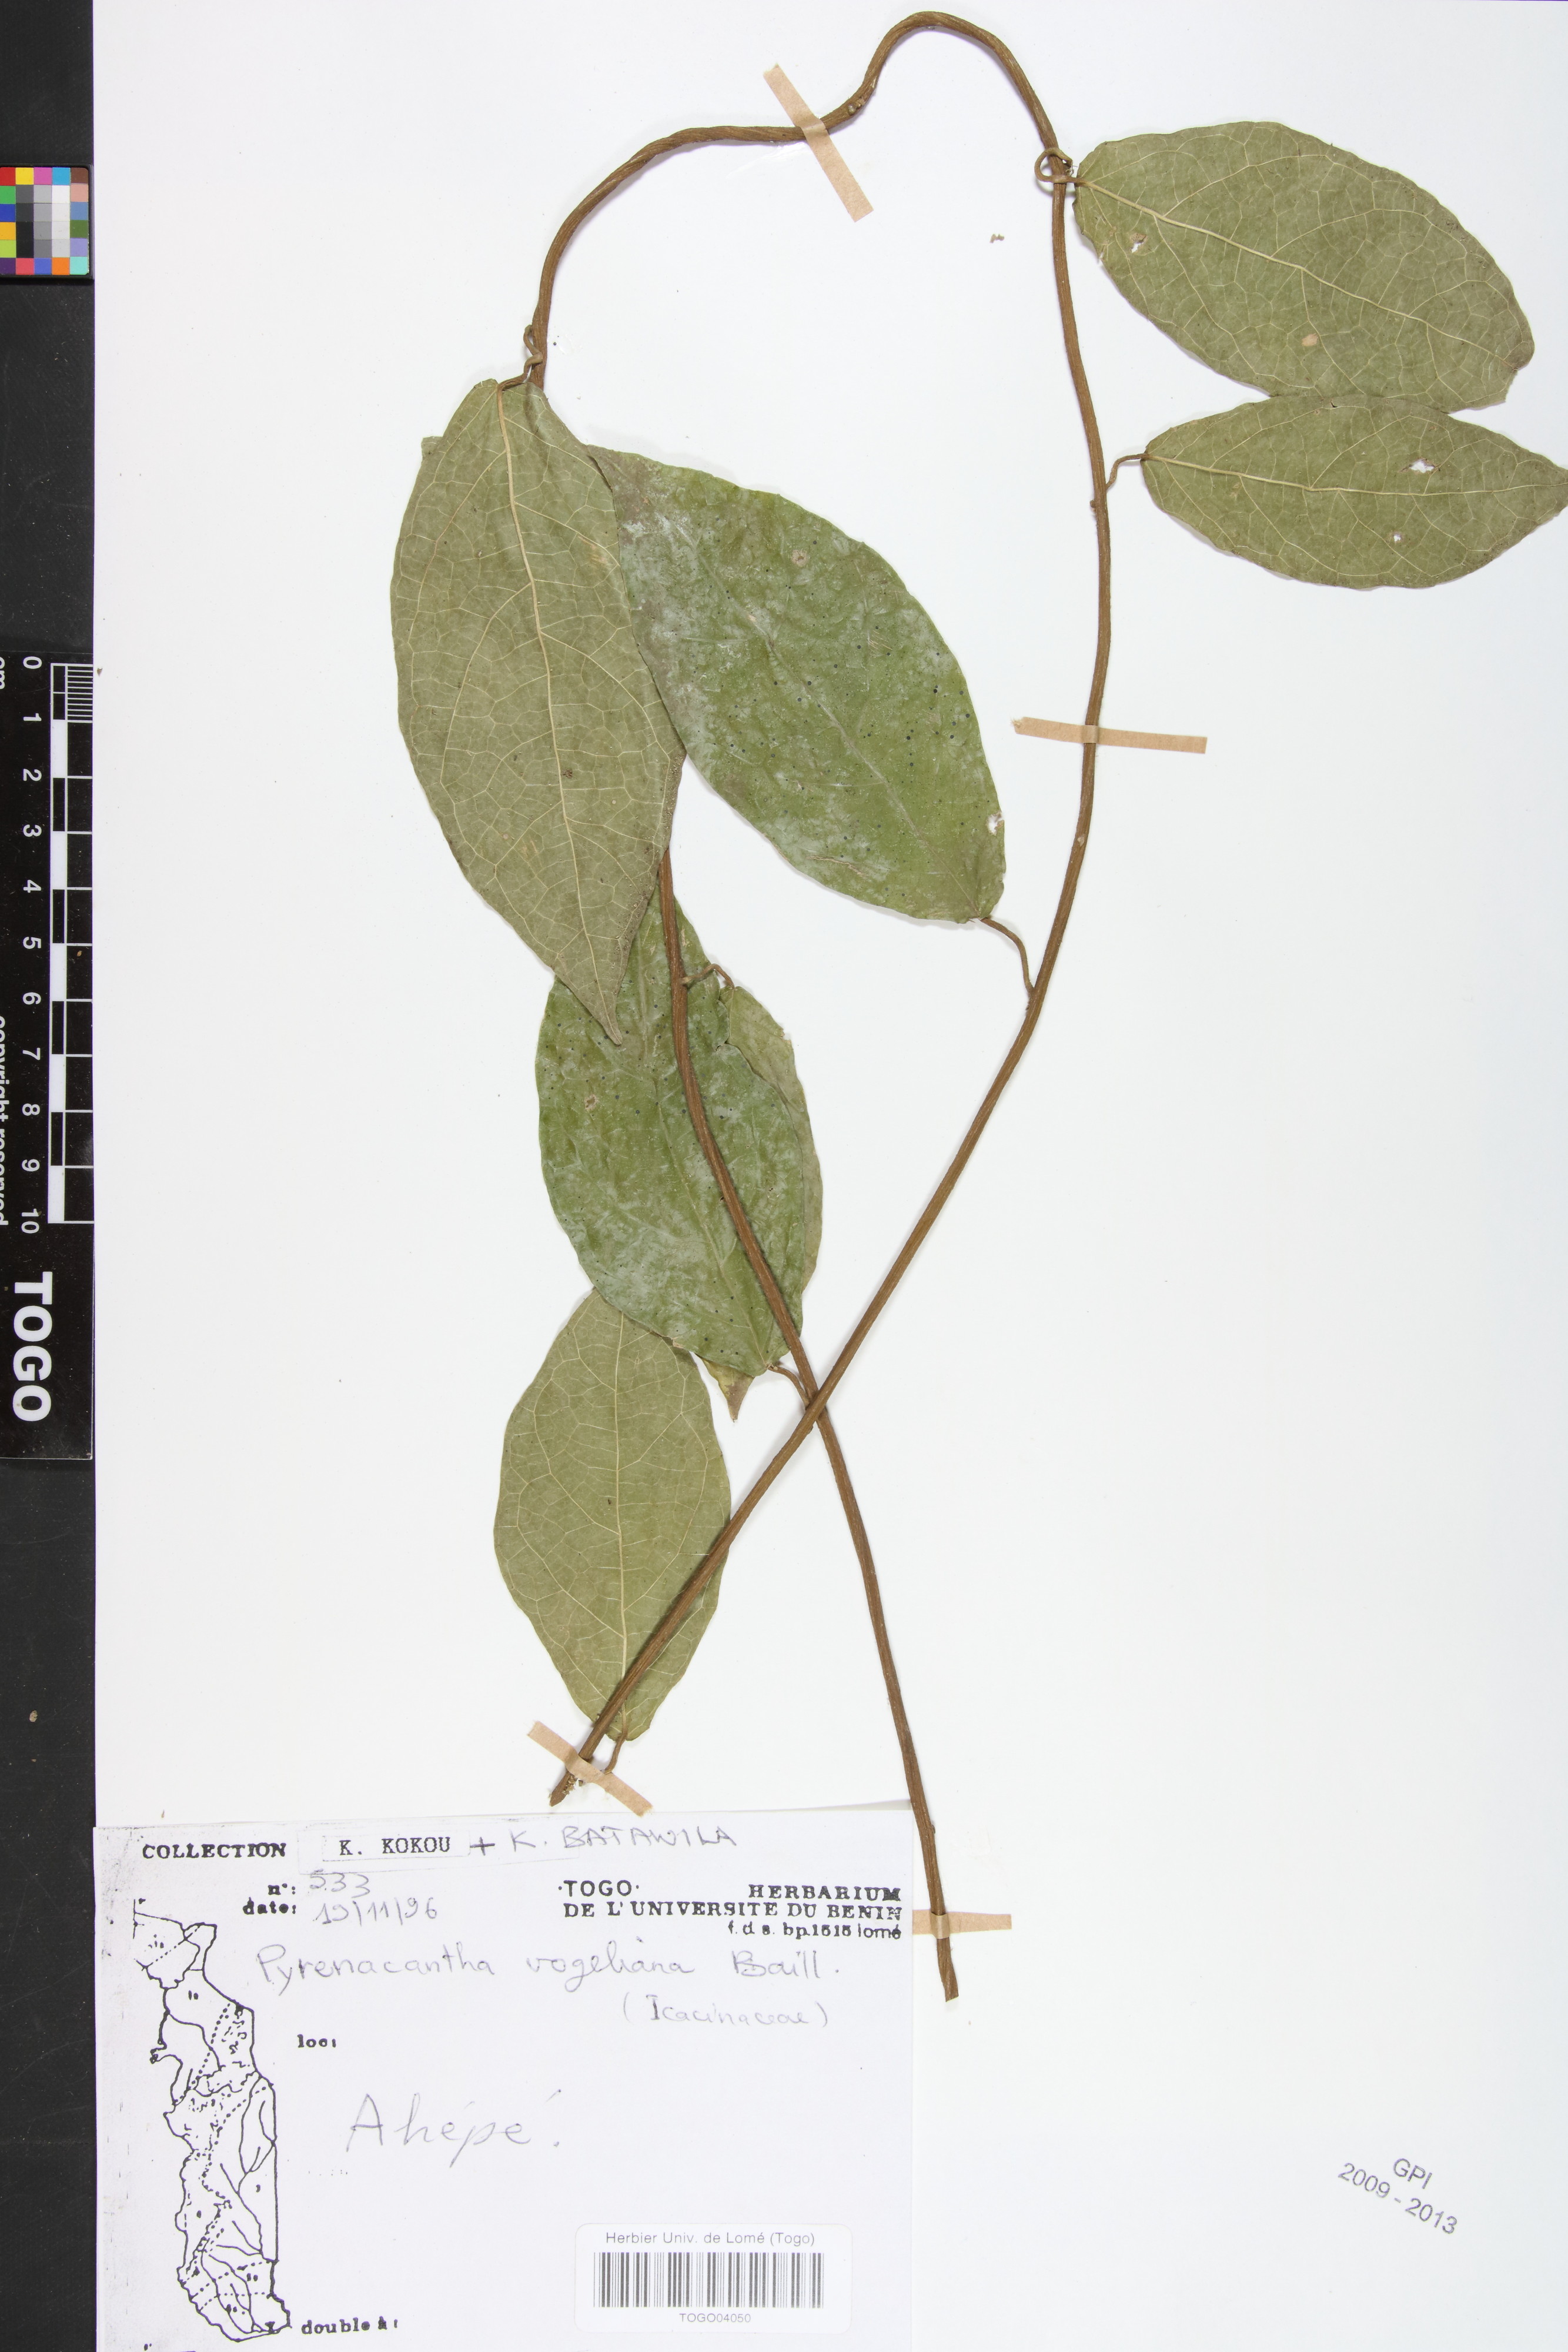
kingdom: Plantae
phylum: Tracheophyta
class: Magnoliopsida
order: Icacinales
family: Icacinaceae
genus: Pyrenacantha
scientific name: Pyrenacantha vogeliana
